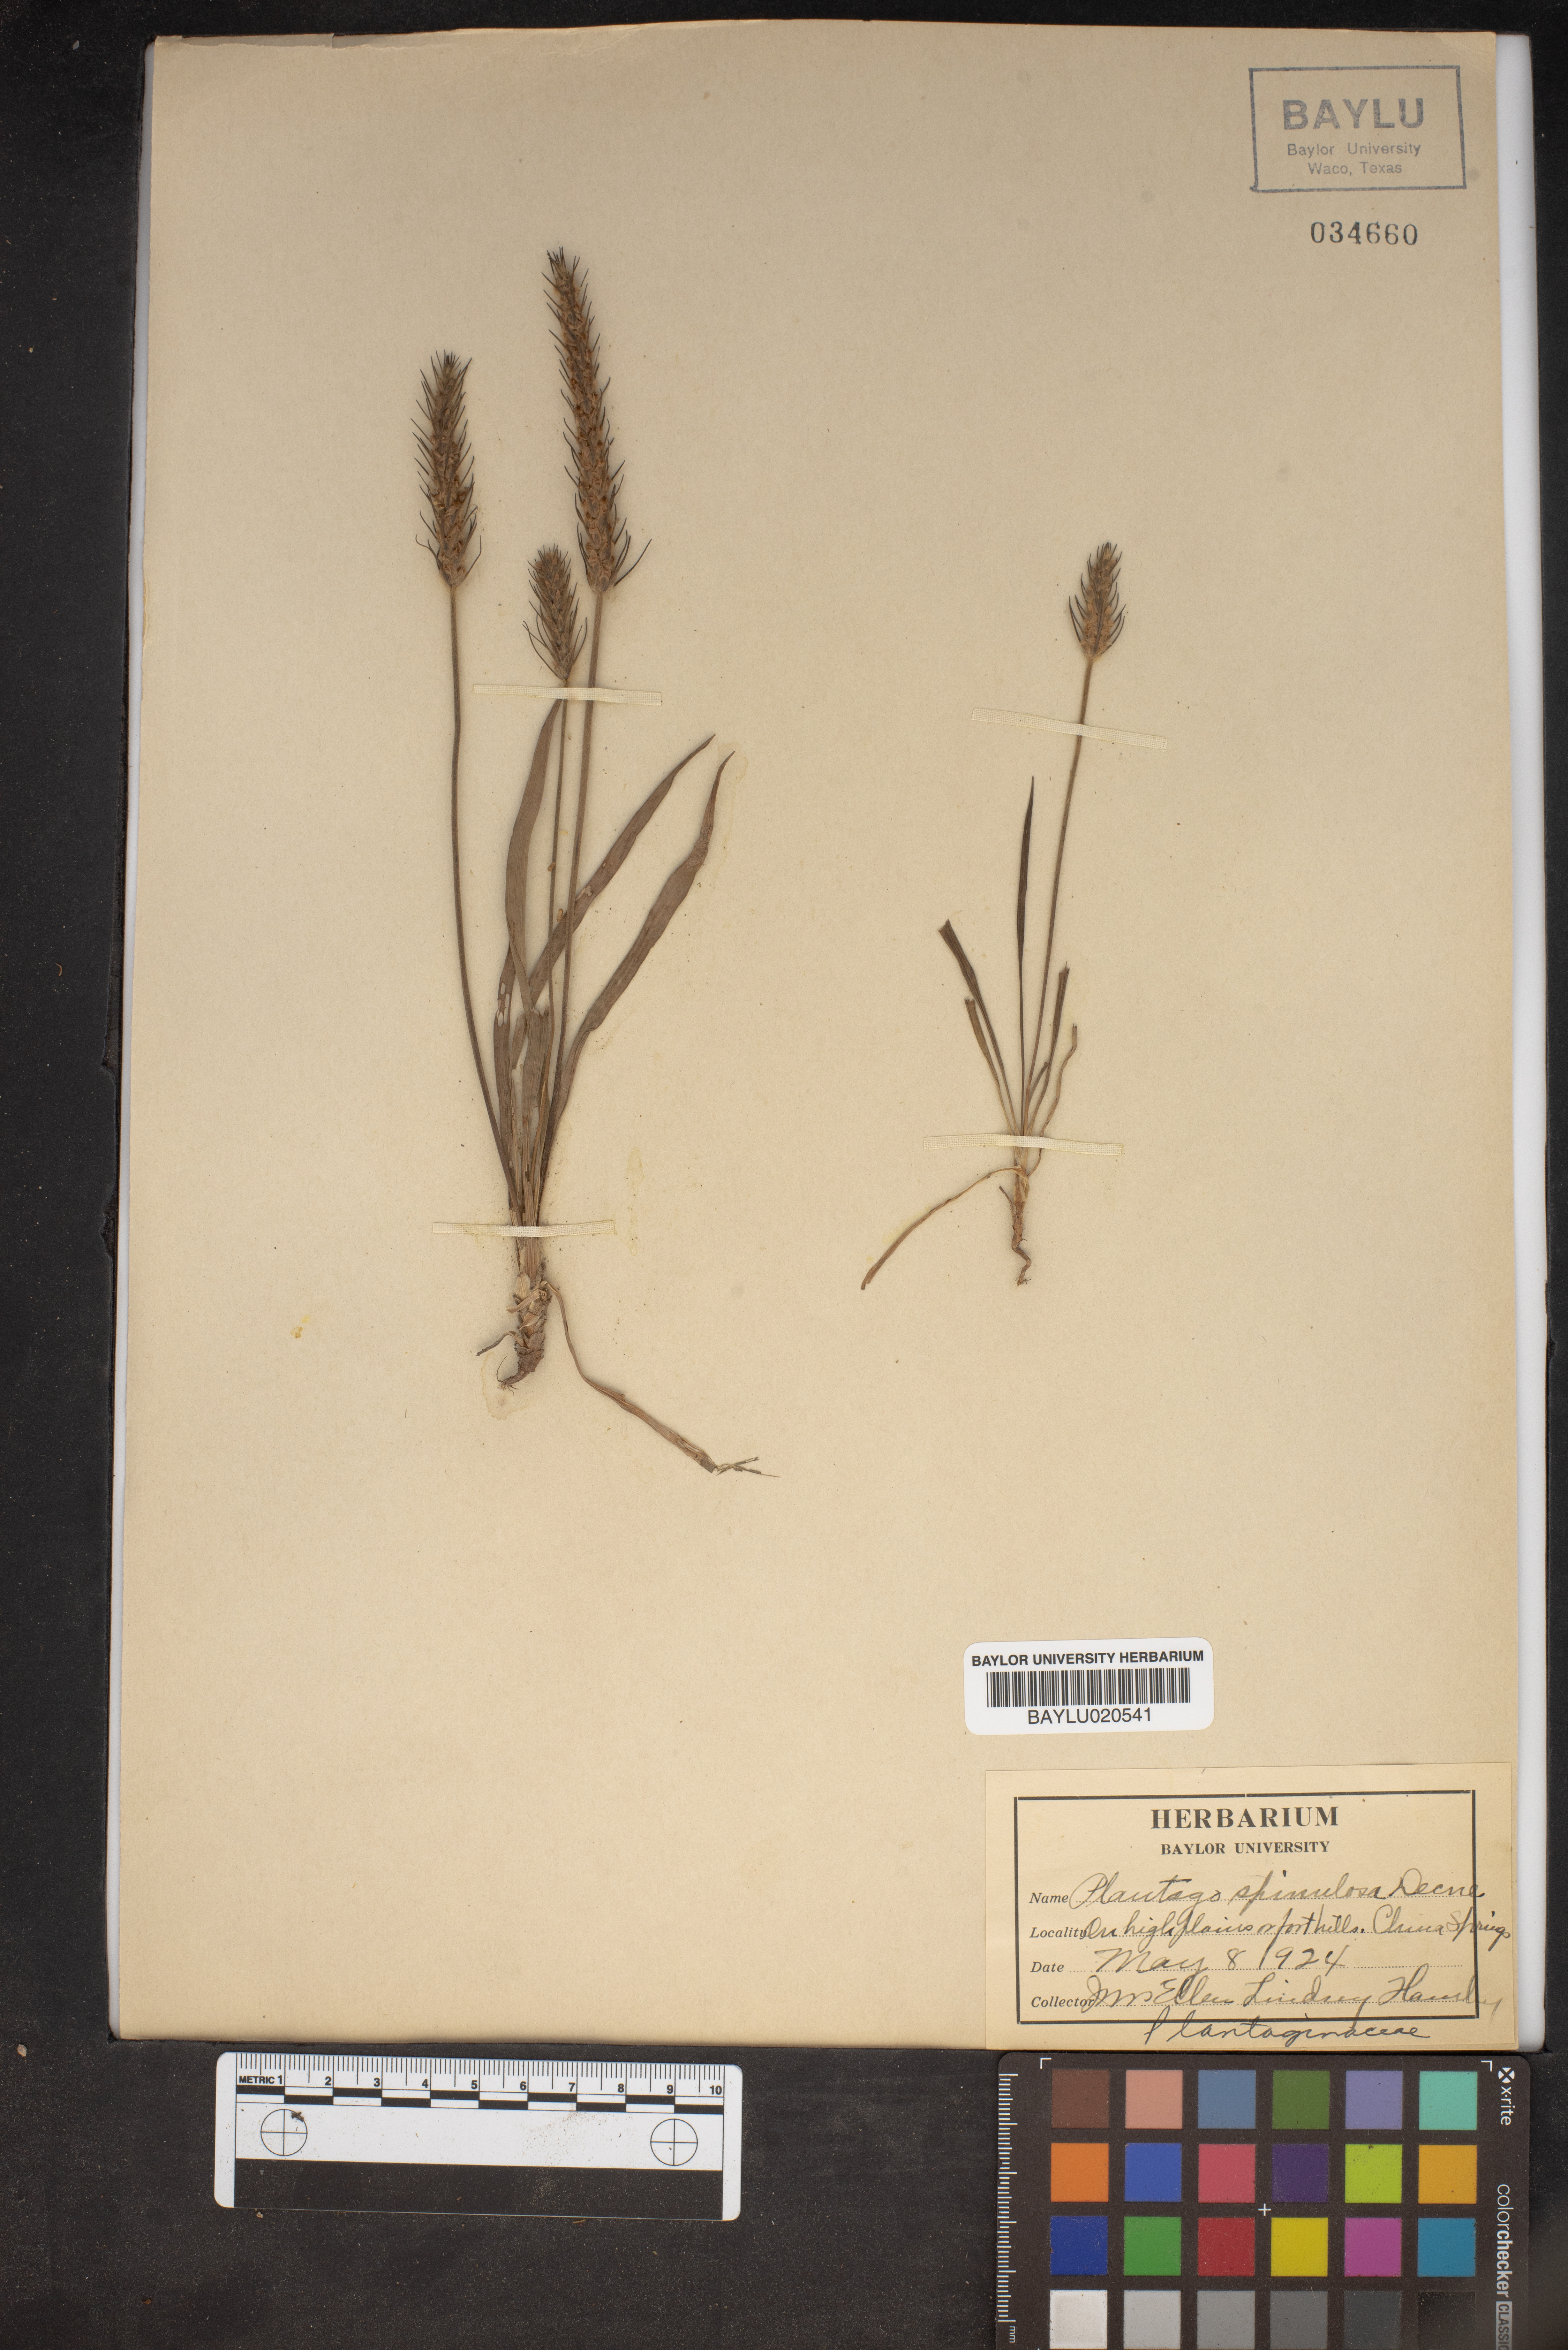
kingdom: Plantae
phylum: Tracheophyta
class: Magnoliopsida
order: Lamiales
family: Plantaginaceae
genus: Plantago
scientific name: Plantago patagonica
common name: Patagonia indian-wheat
